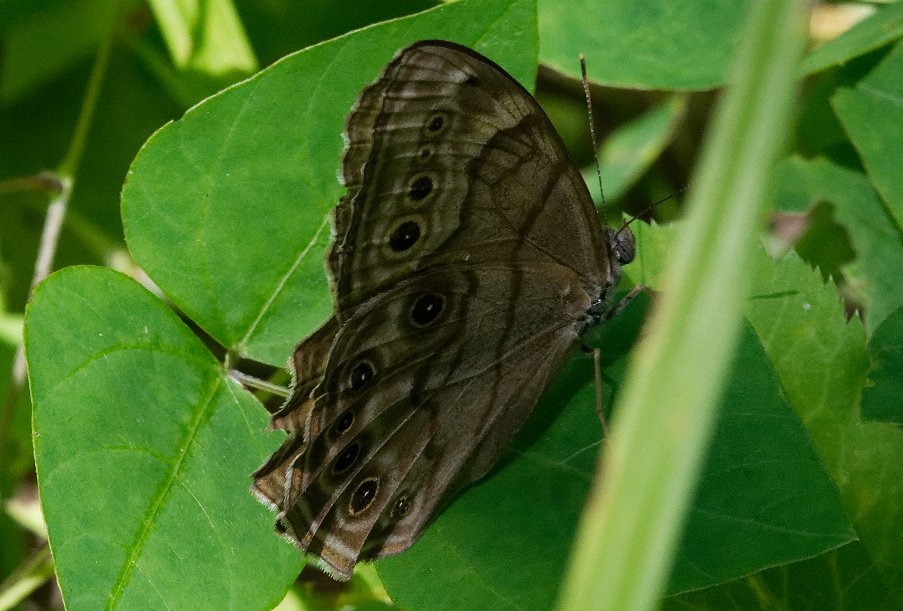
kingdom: Animalia
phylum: Arthropoda
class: Insecta
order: Lepidoptera
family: Nymphalidae
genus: Lethe
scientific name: Lethe anthedon
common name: Northern Pearly-Eye
